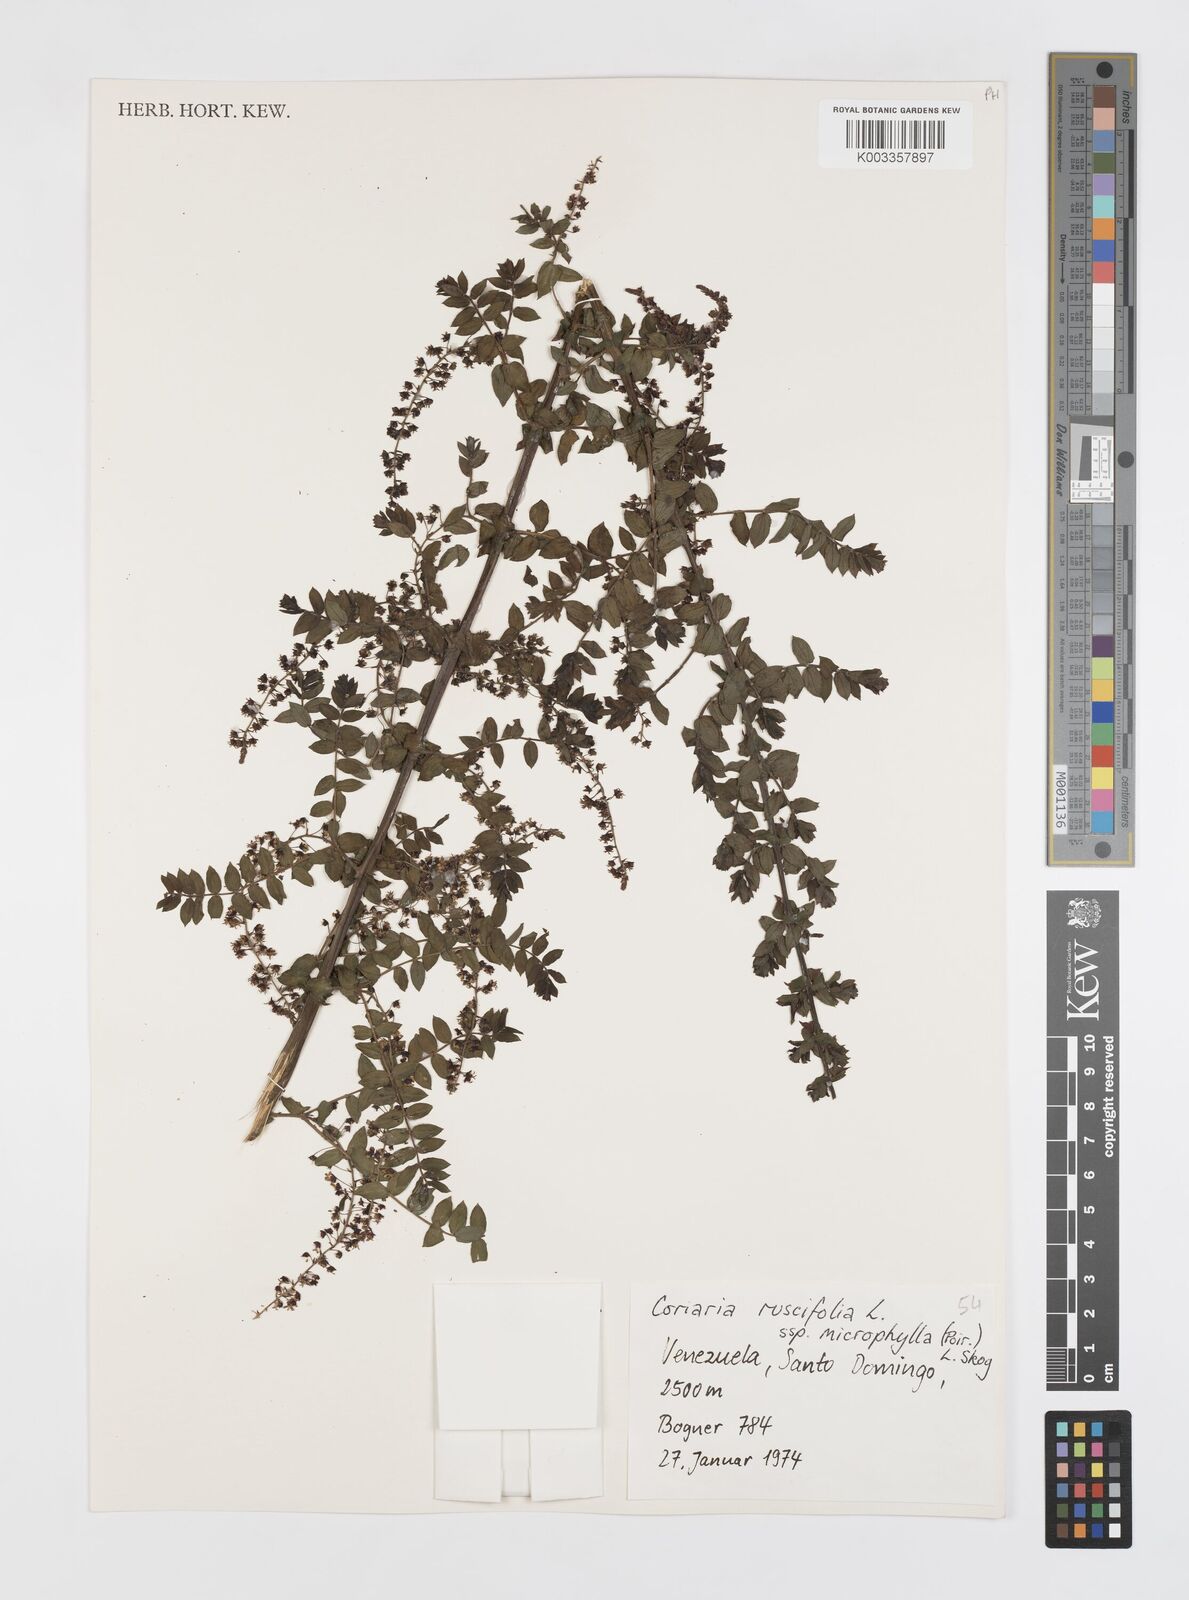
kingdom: Plantae
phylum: Tracheophyta
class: Magnoliopsida
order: Cucurbitales
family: Coriariaceae
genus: Coriaria
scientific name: Coriaria microphylla
